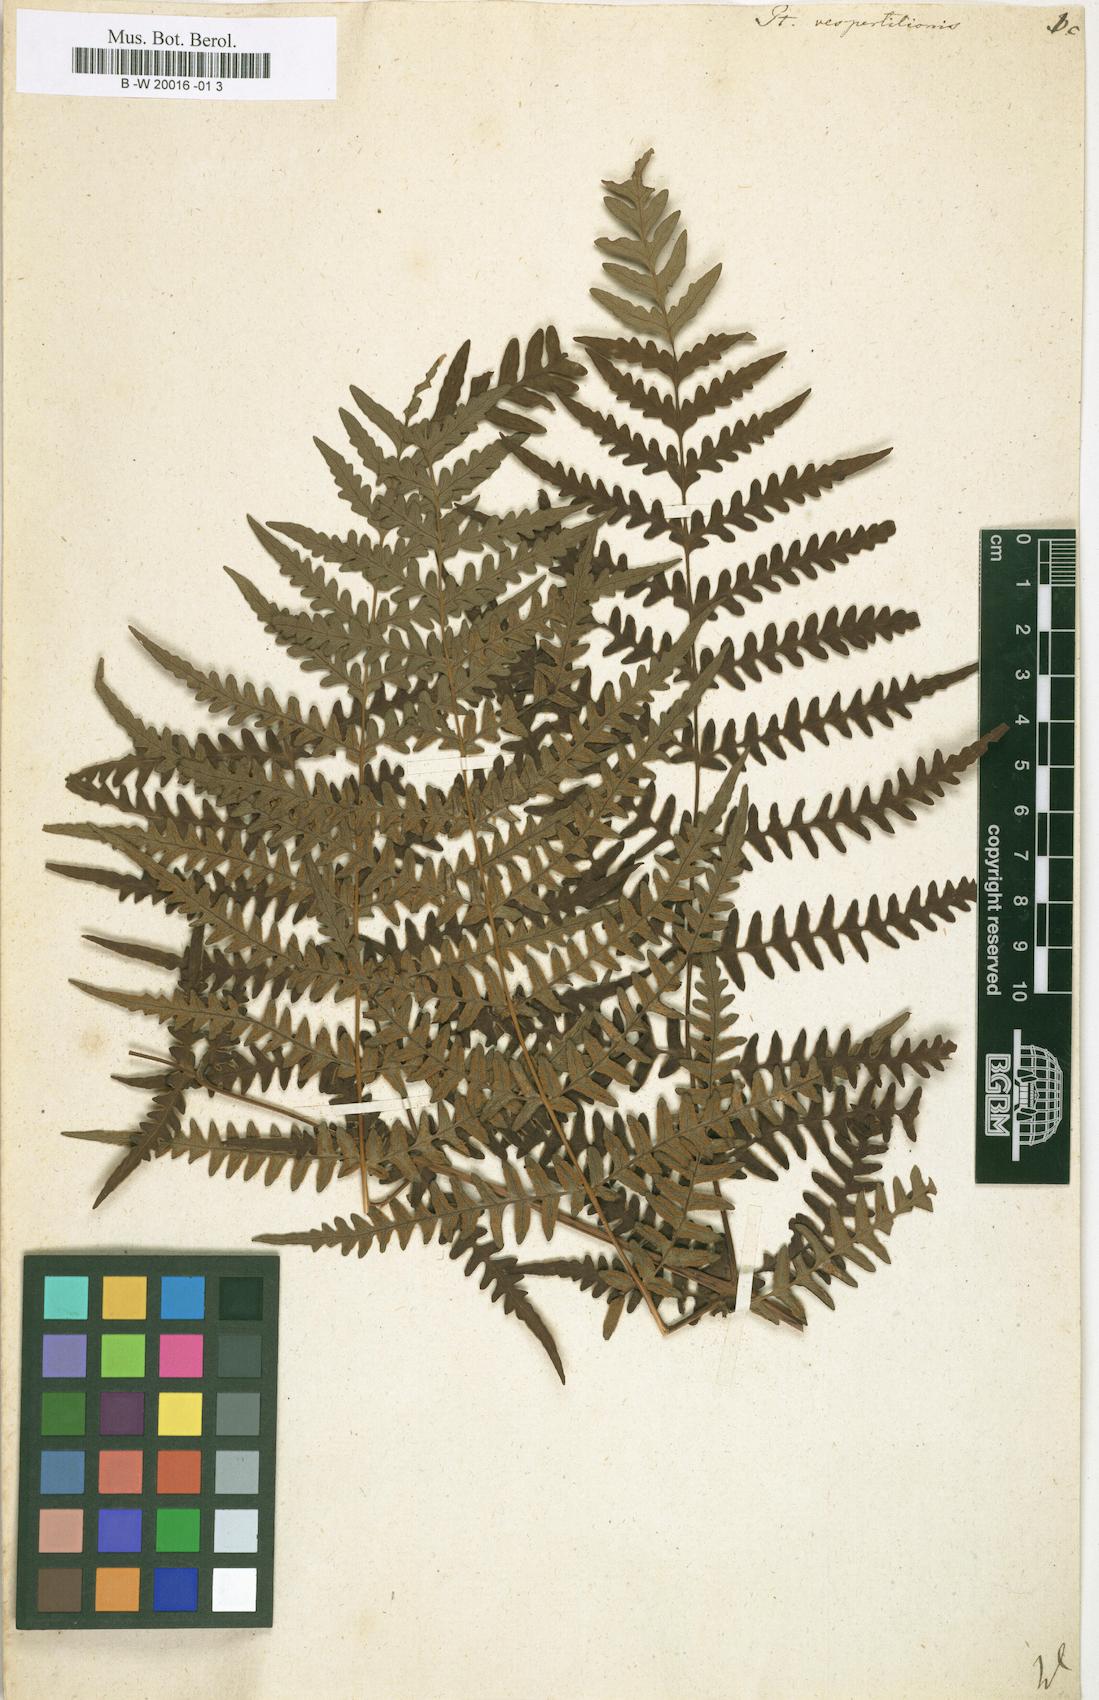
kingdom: Plantae
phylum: Tracheophyta
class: Polypodiopsida
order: Polypodiales
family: Dennstaedtiaceae
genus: Histiopteris
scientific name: Histiopteris incisa
